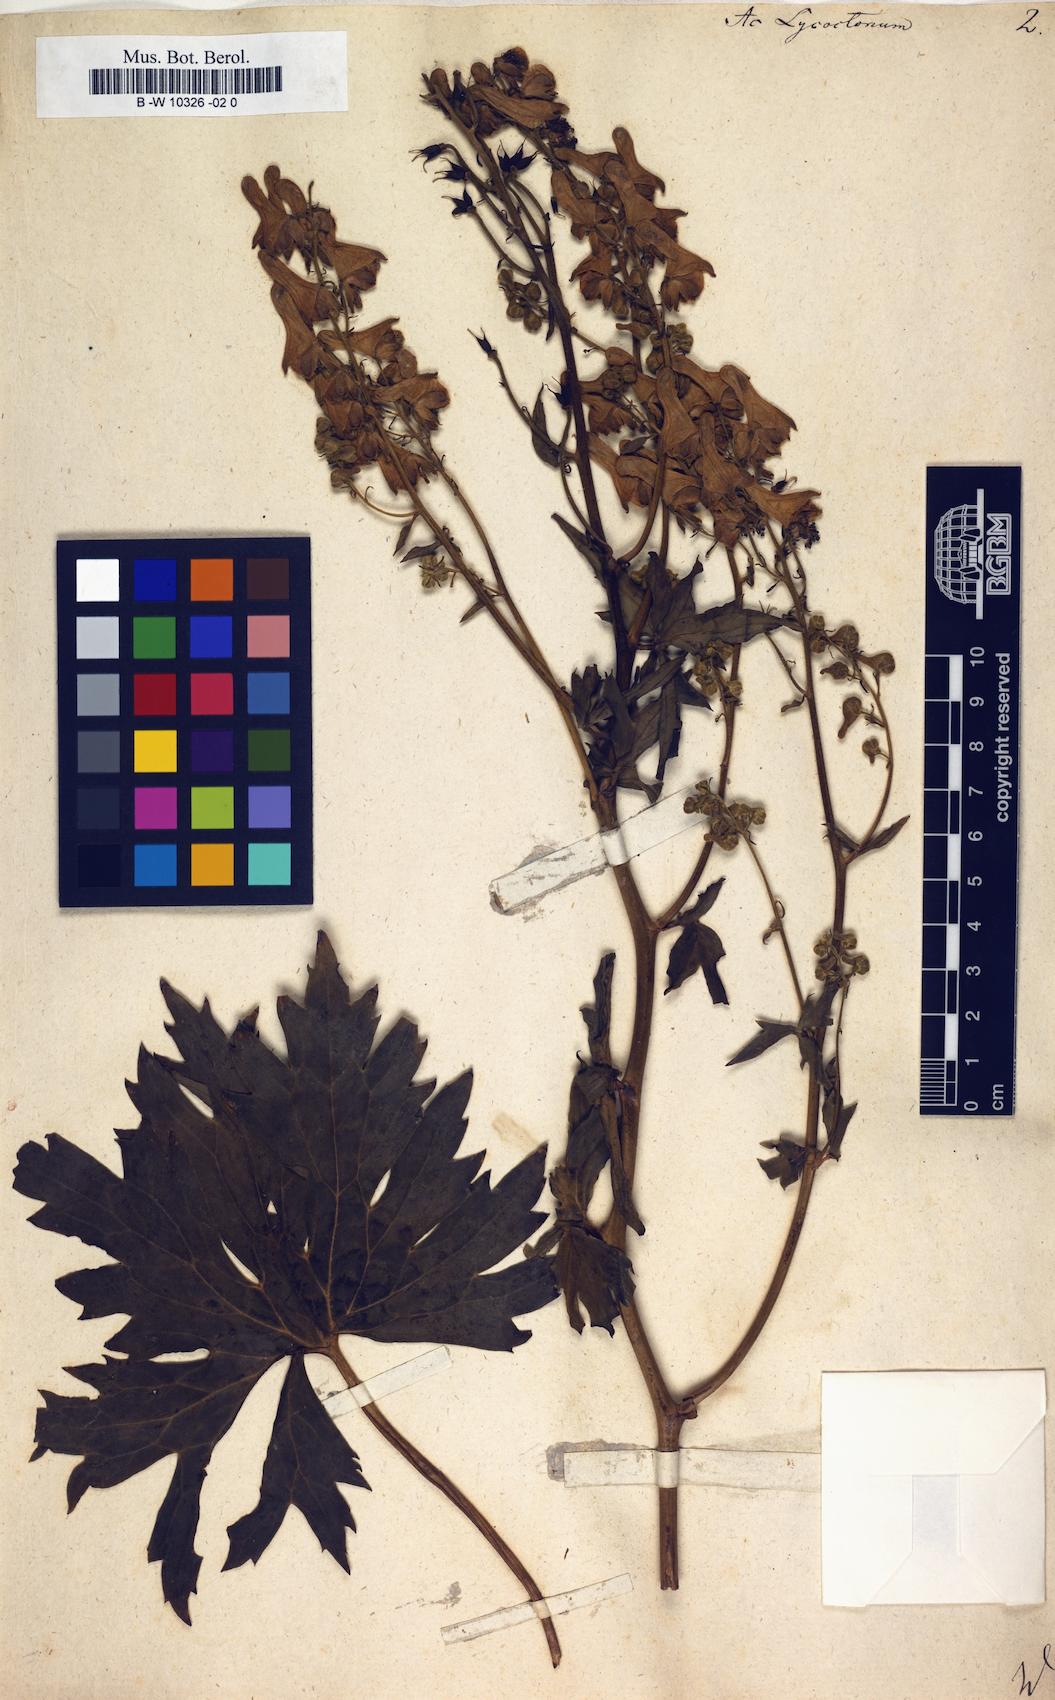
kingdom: Plantae
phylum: Tracheophyta
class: Magnoliopsida
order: Ranunculales
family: Ranunculaceae
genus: Aconitum
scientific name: Aconitum lycoctonum
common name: Wolf's-bane
